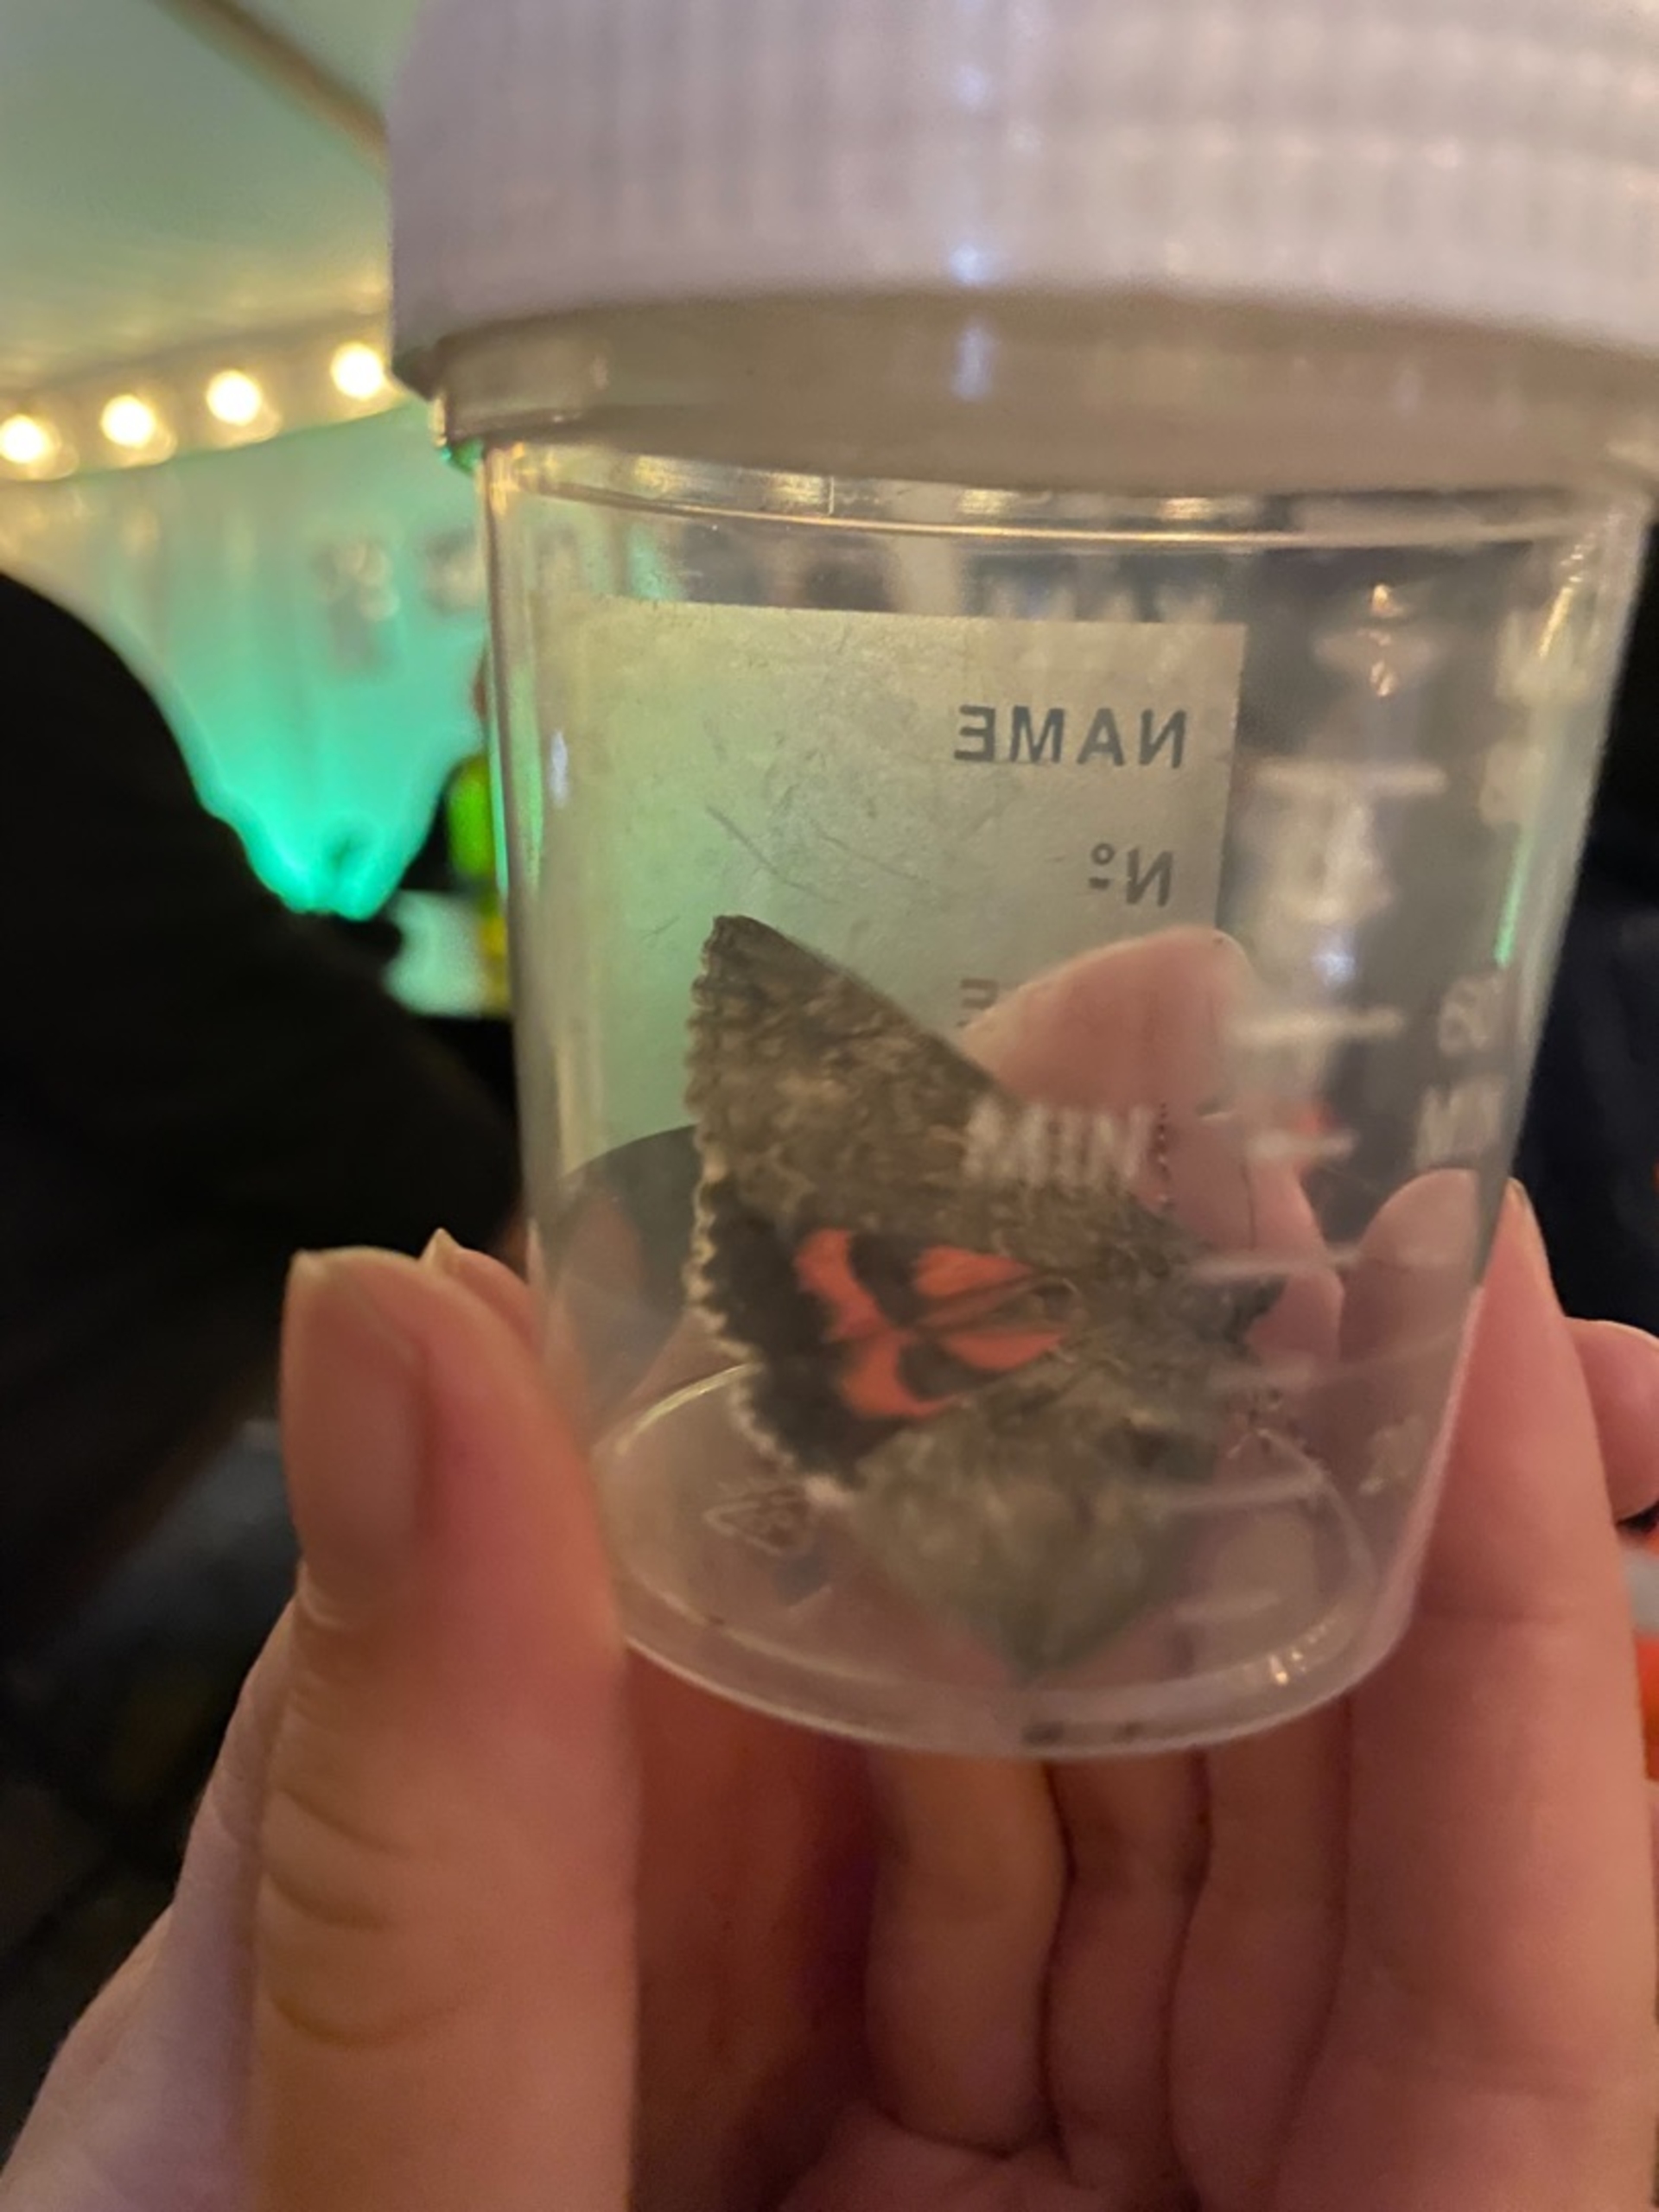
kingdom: Animalia
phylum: Arthropoda
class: Insecta
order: Lepidoptera
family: Erebidae
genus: Catocala
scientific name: Catocala nupta
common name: Rødt ordensbånd
